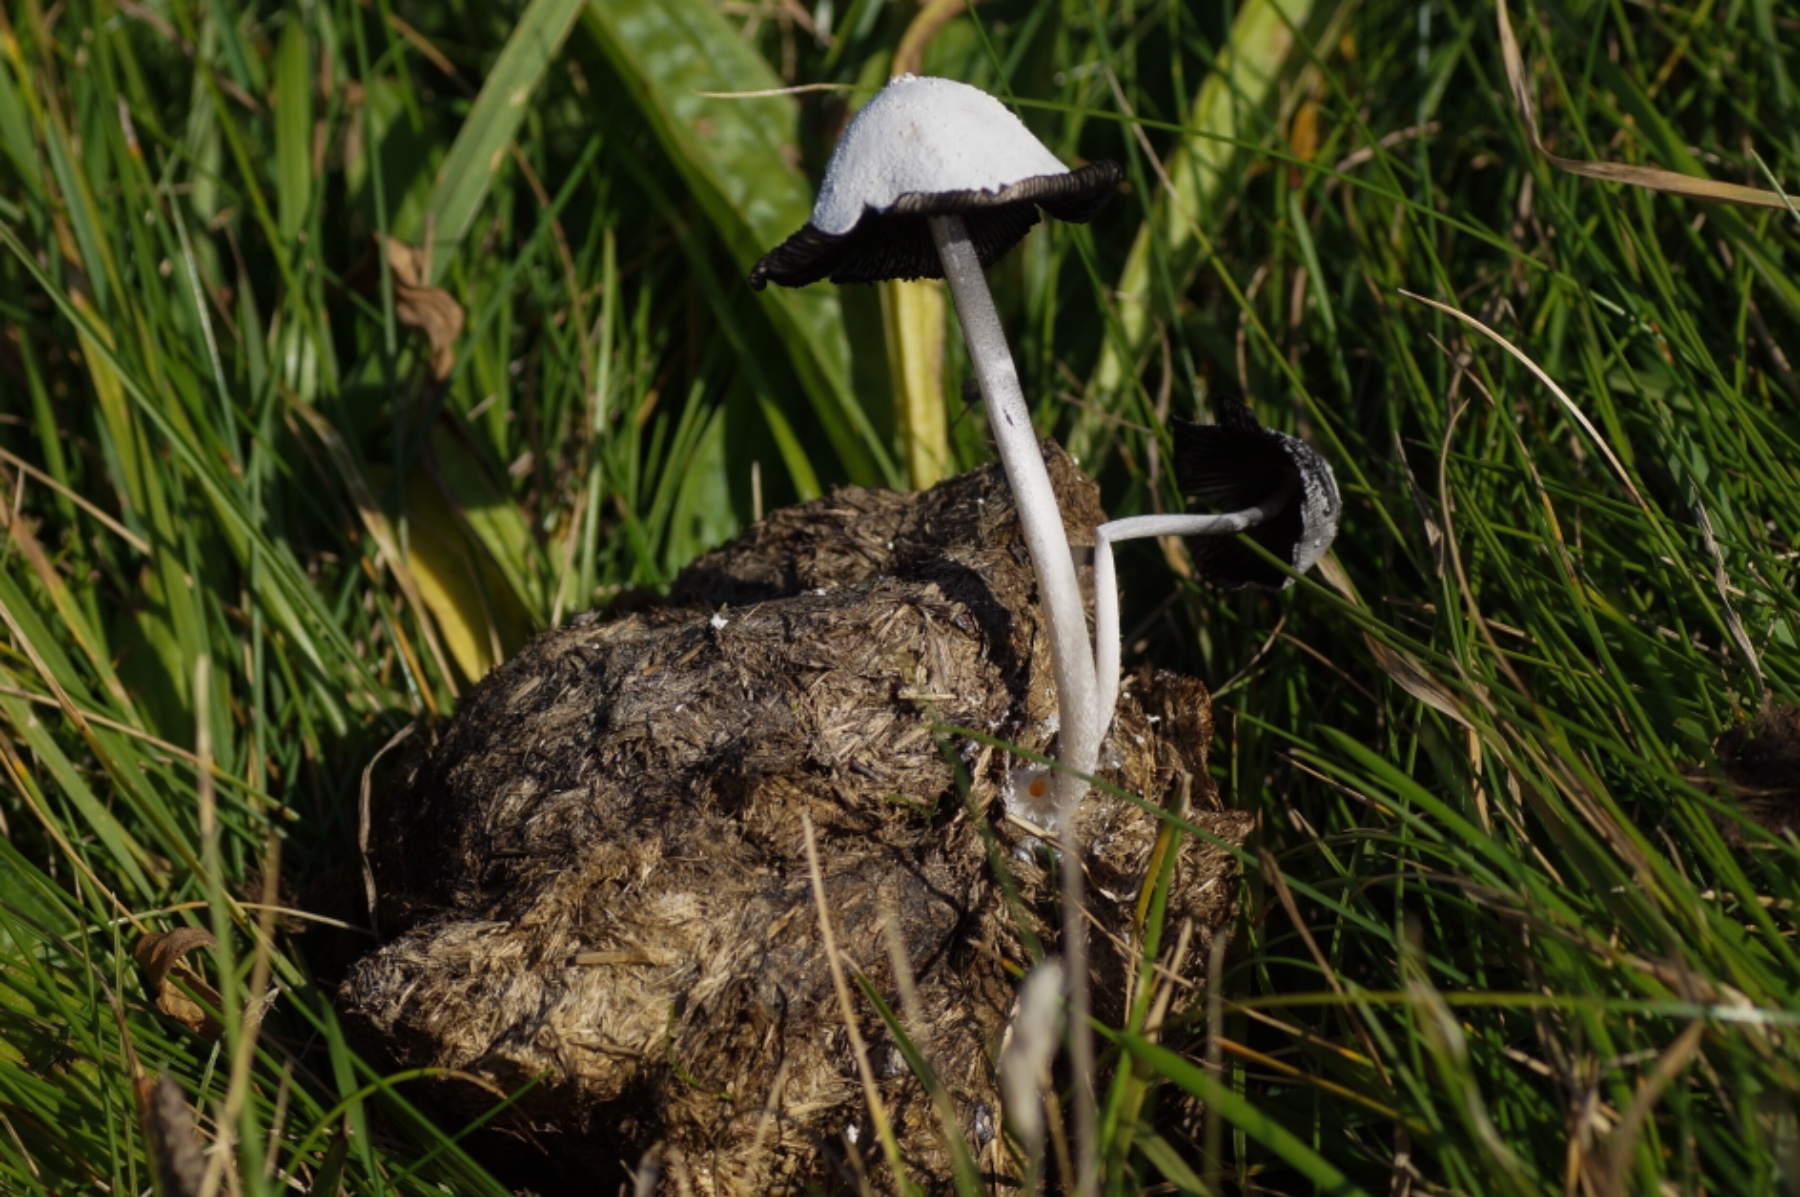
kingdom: Fungi
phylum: Basidiomycota
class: Agaricomycetes
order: Agaricales
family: Psathyrellaceae
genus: Coprinopsis
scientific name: Coprinopsis nivea
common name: snehvid blækhat
